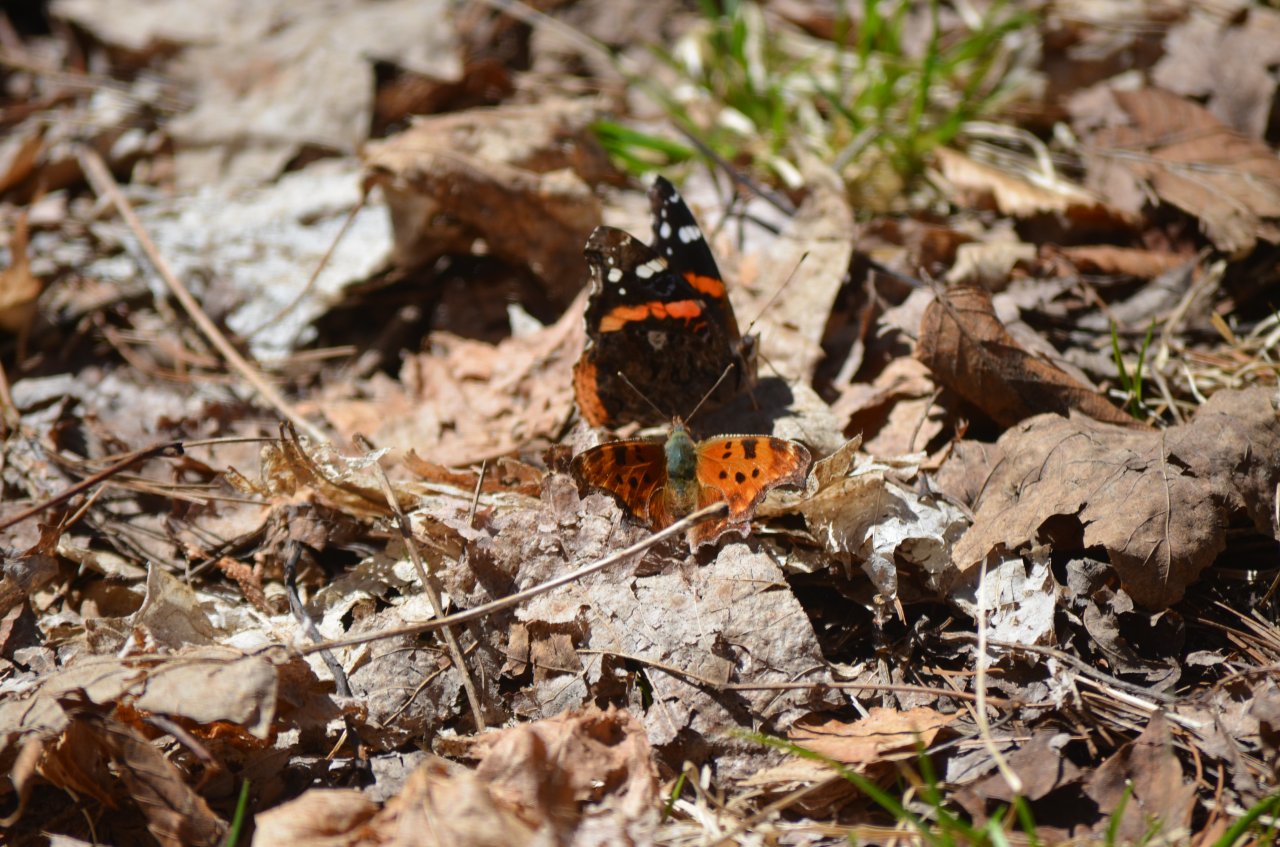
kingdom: Animalia
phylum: Arthropoda
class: Insecta
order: Lepidoptera
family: Nymphalidae
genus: Polygonia
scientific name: Polygonia comma
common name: Eastern Comma
